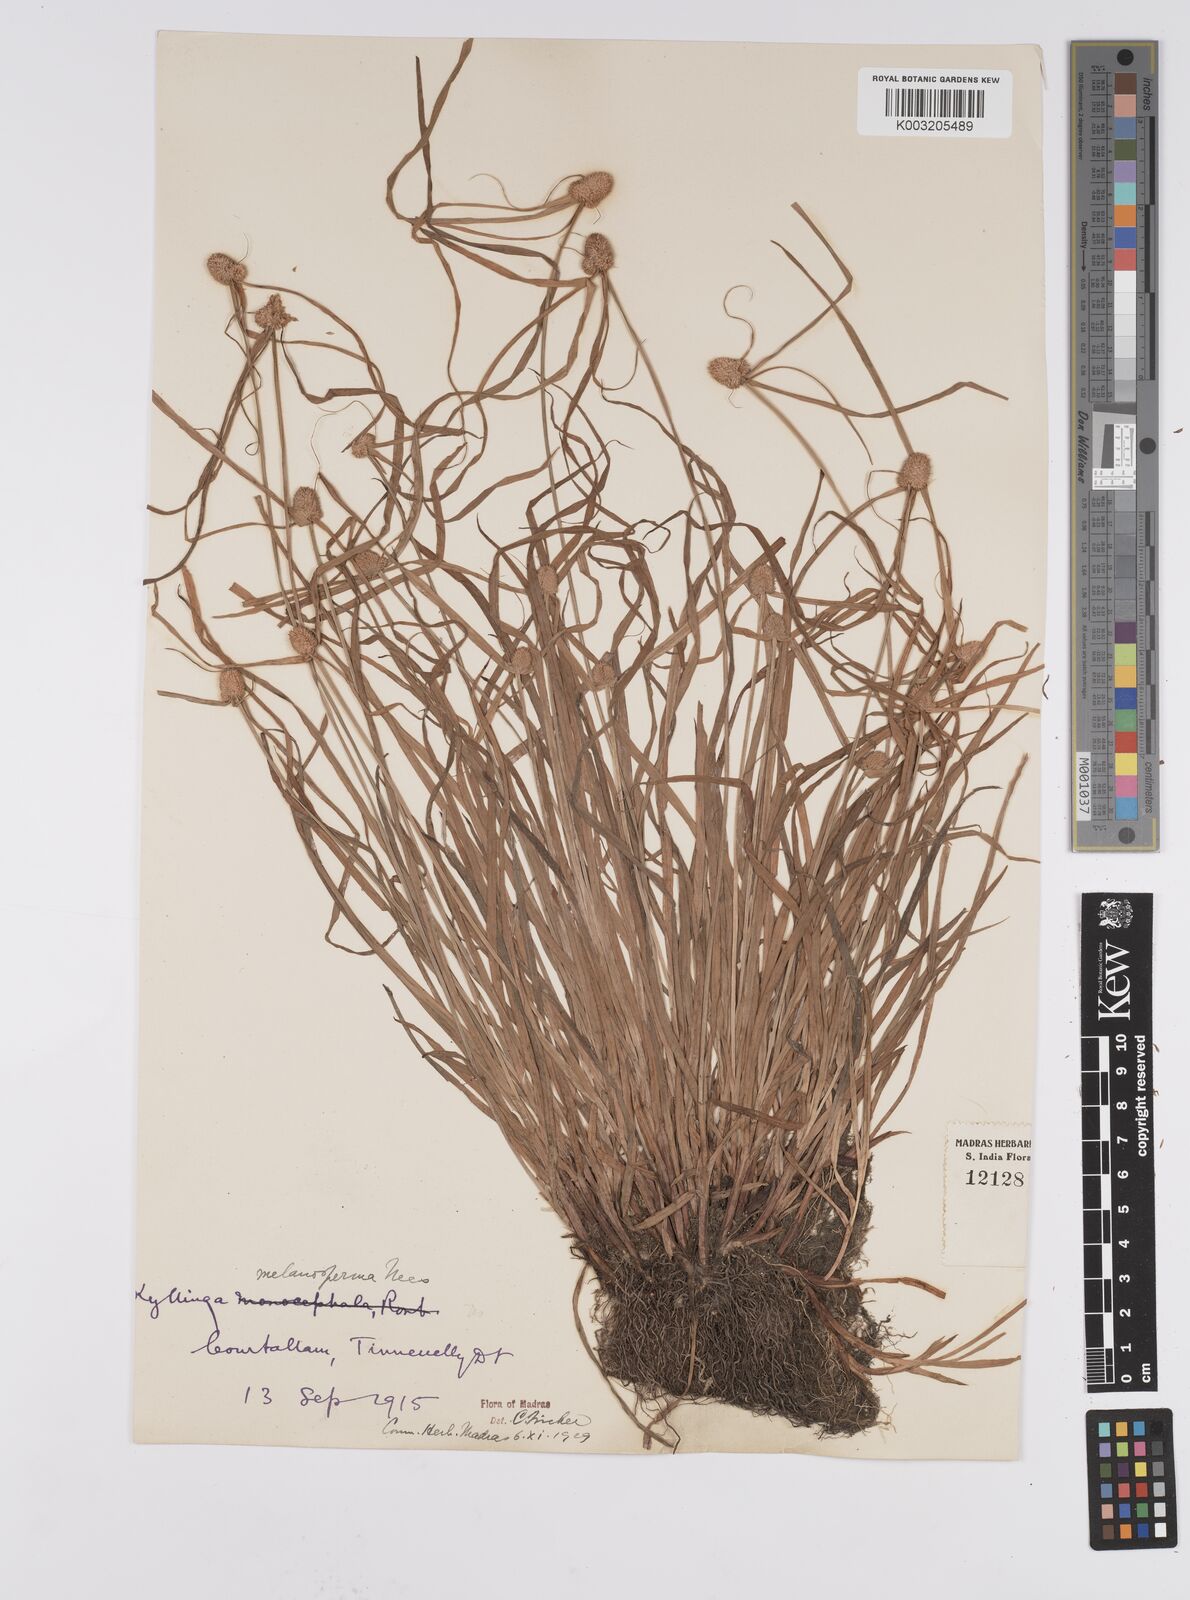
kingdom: Plantae
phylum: Tracheophyta
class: Liliopsida
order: Poales
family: Cyperaceae
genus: Cyperus
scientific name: Cyperus
